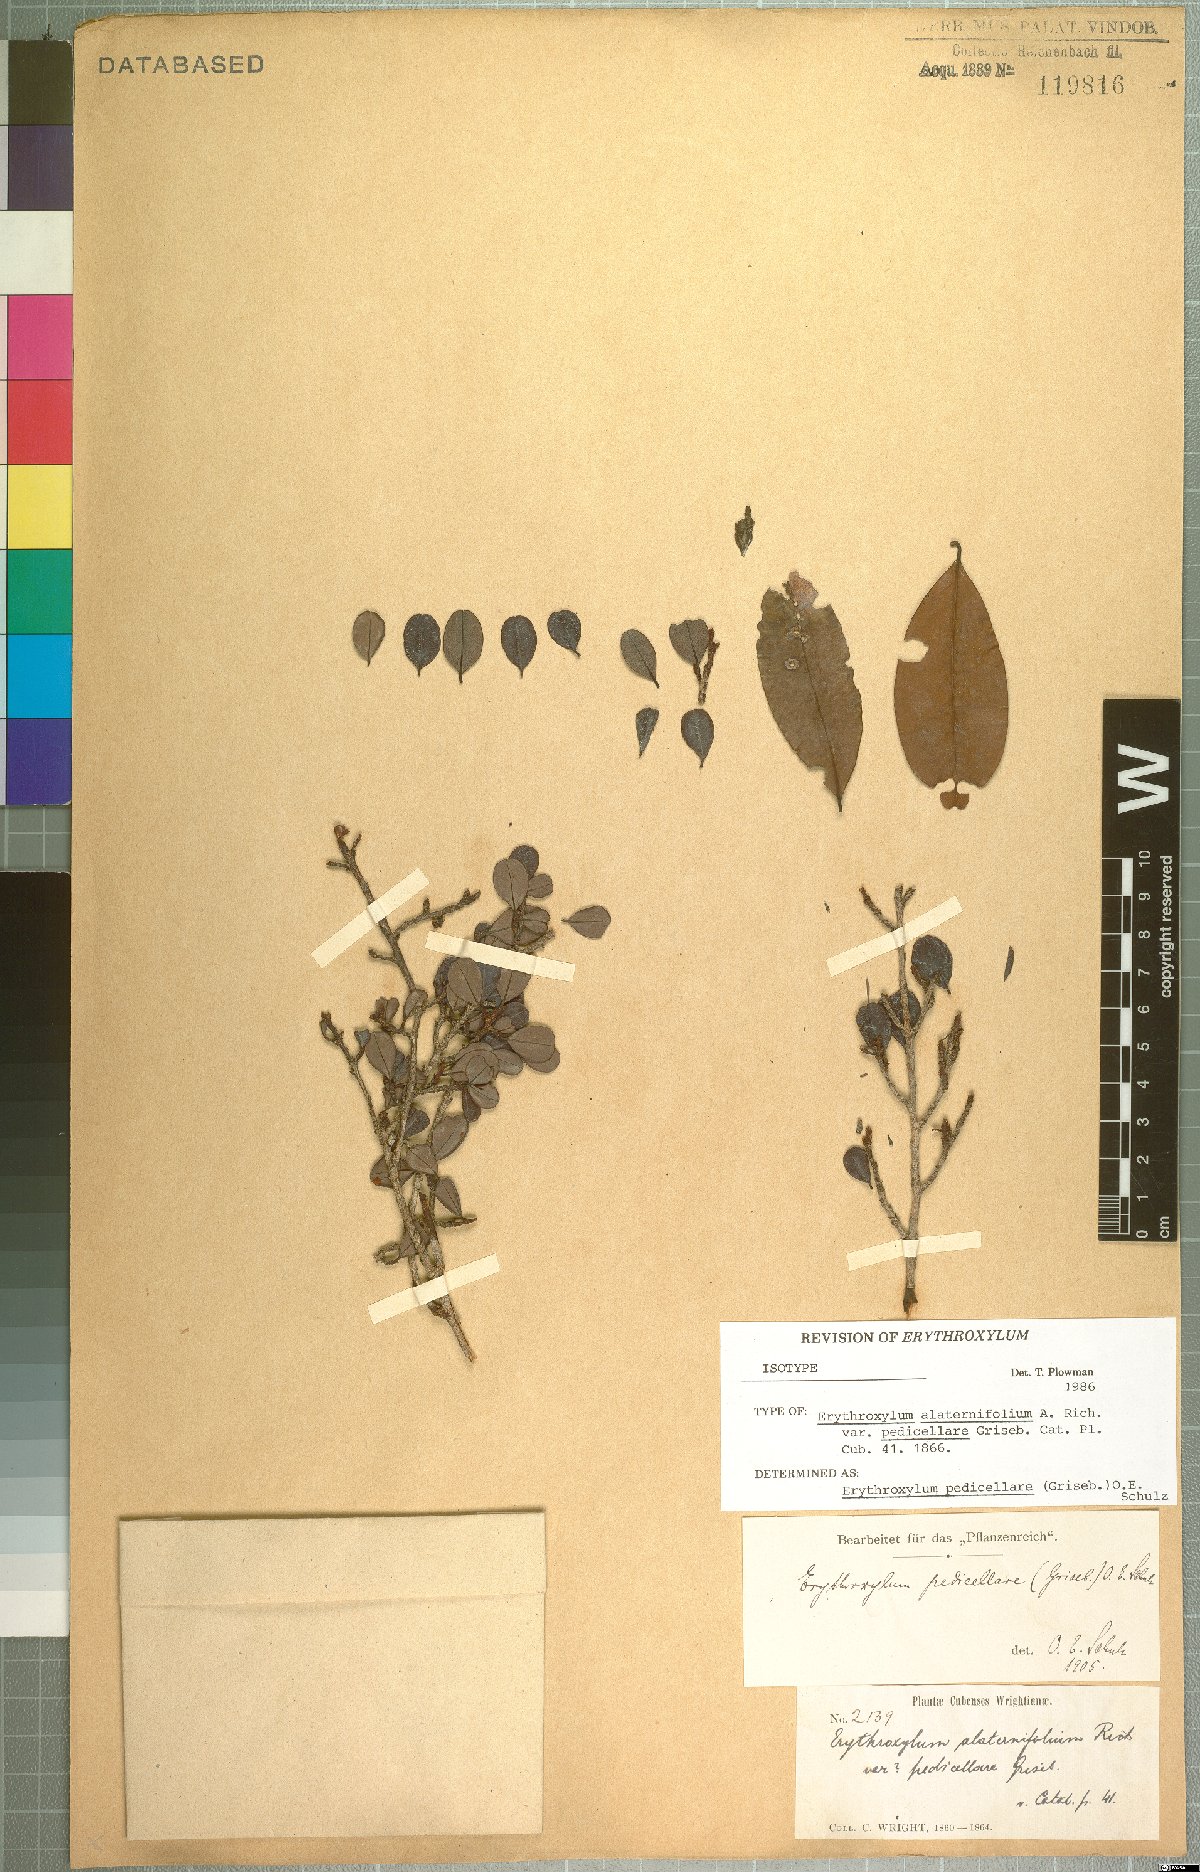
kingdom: Plantae
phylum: Tracheophyta
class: Magnoliopsida
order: Malpighiales
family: Erythroxylaceae
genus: Erythroxylum
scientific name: Erythroxylum pedicellare
